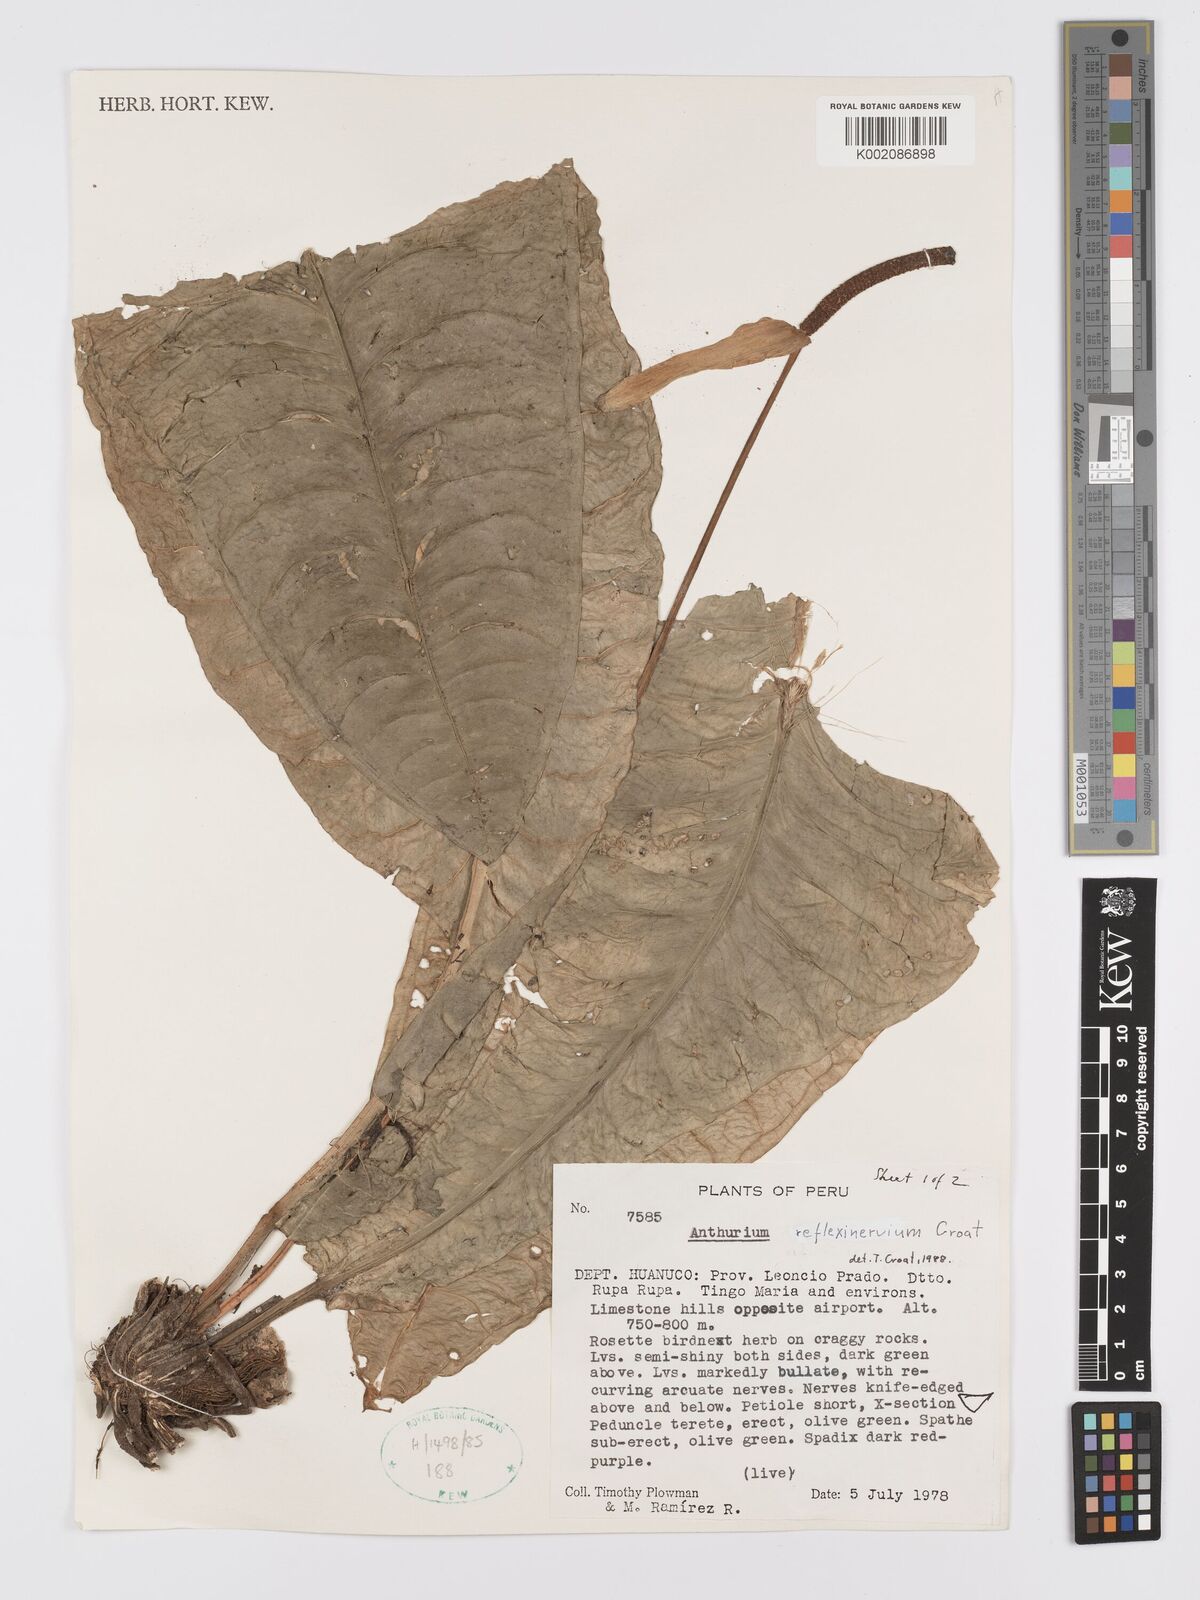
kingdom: Plantae
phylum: Tracheophyta
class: Liliopsida
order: Alismatales
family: Araceae
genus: Anthurium
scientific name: Anthurium reflexinervium
